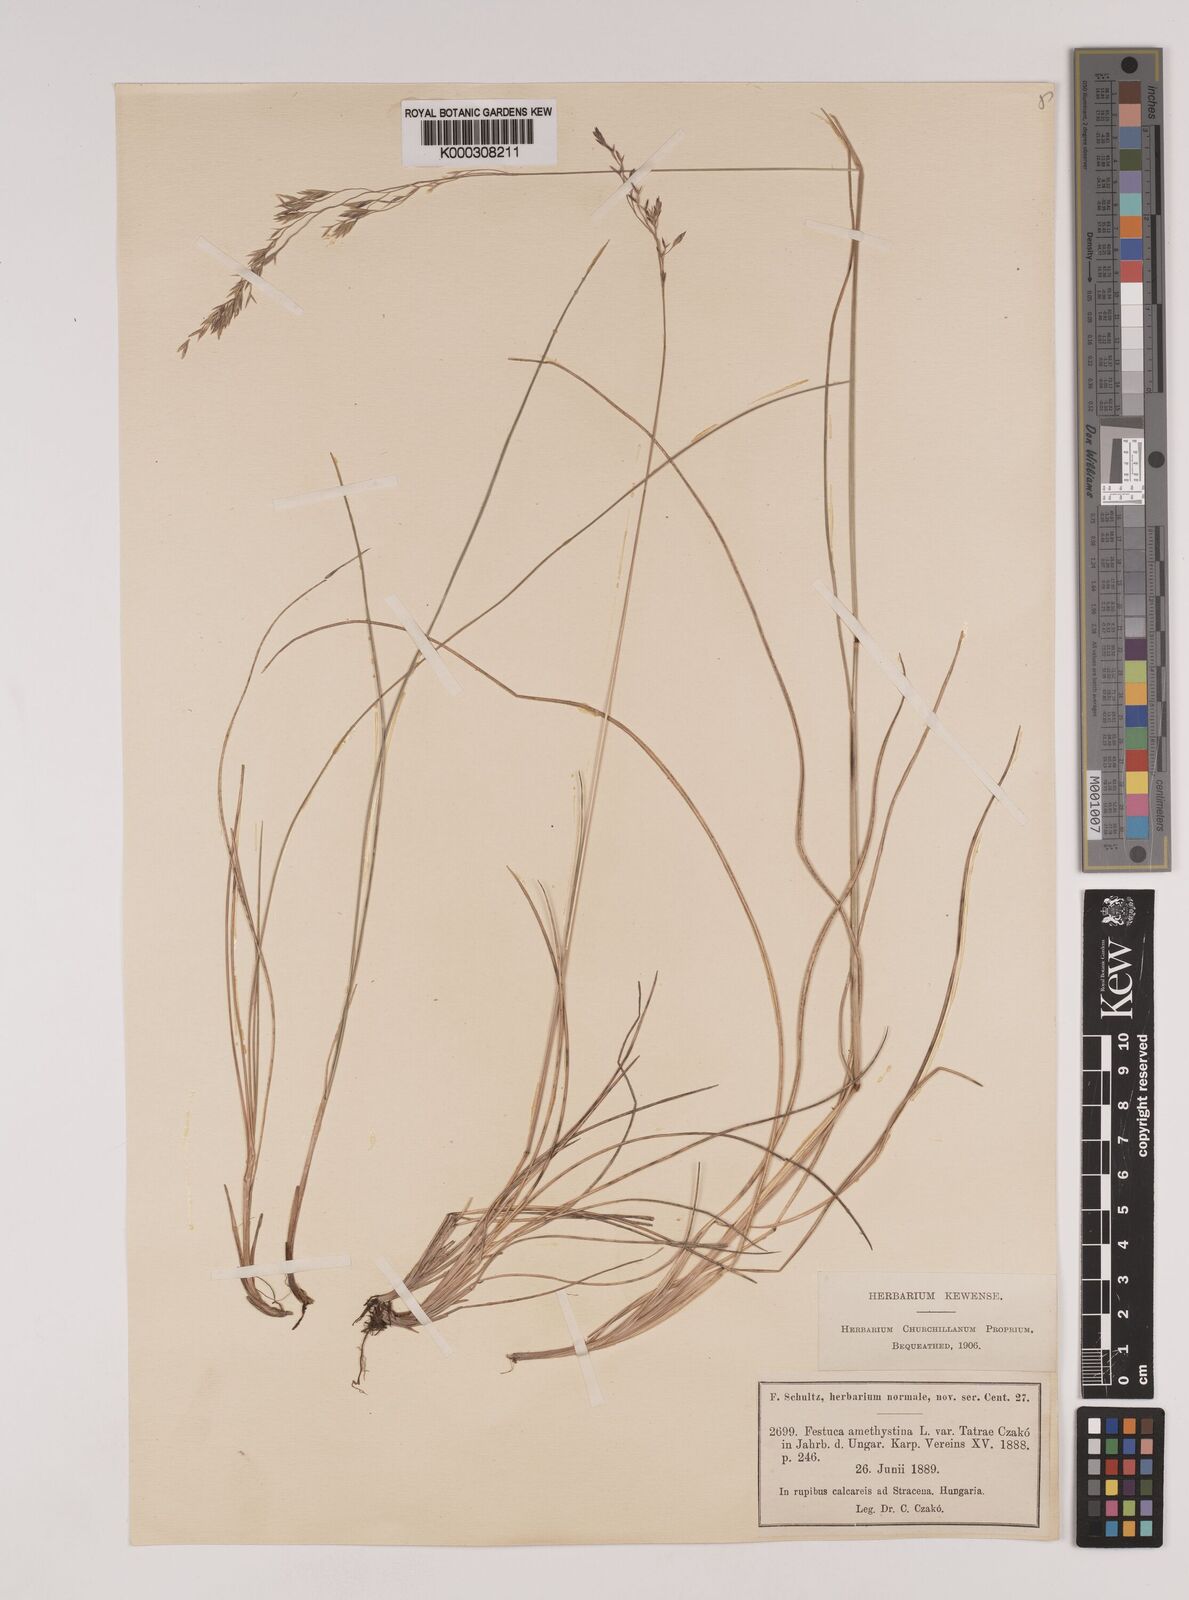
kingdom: Plantae
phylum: Tracheophyta
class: Liliopsida
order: Poales
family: Poaceae
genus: Festuca
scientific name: Festuca
